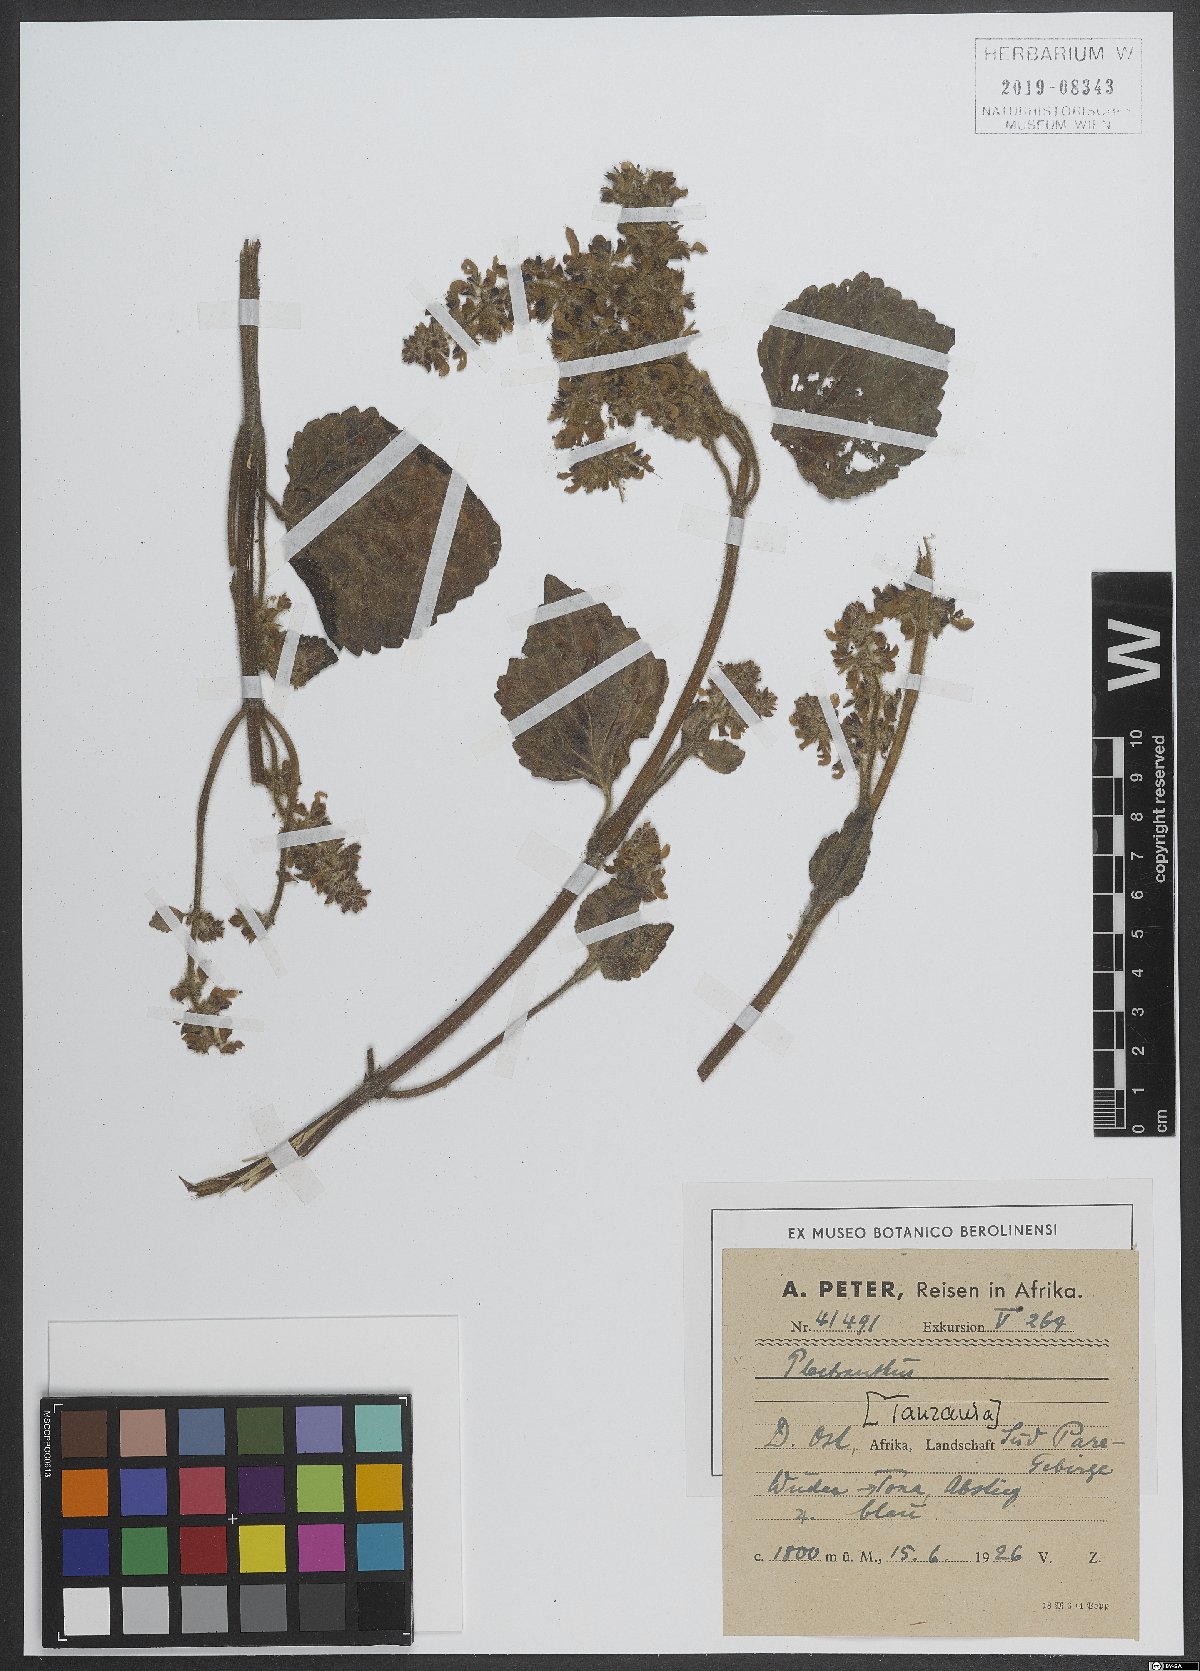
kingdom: Plantae
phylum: Tracheophyta
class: Magnoliopsida
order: Lamiales
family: Lamiaceae
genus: Plectranthus
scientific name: Plectranthus
